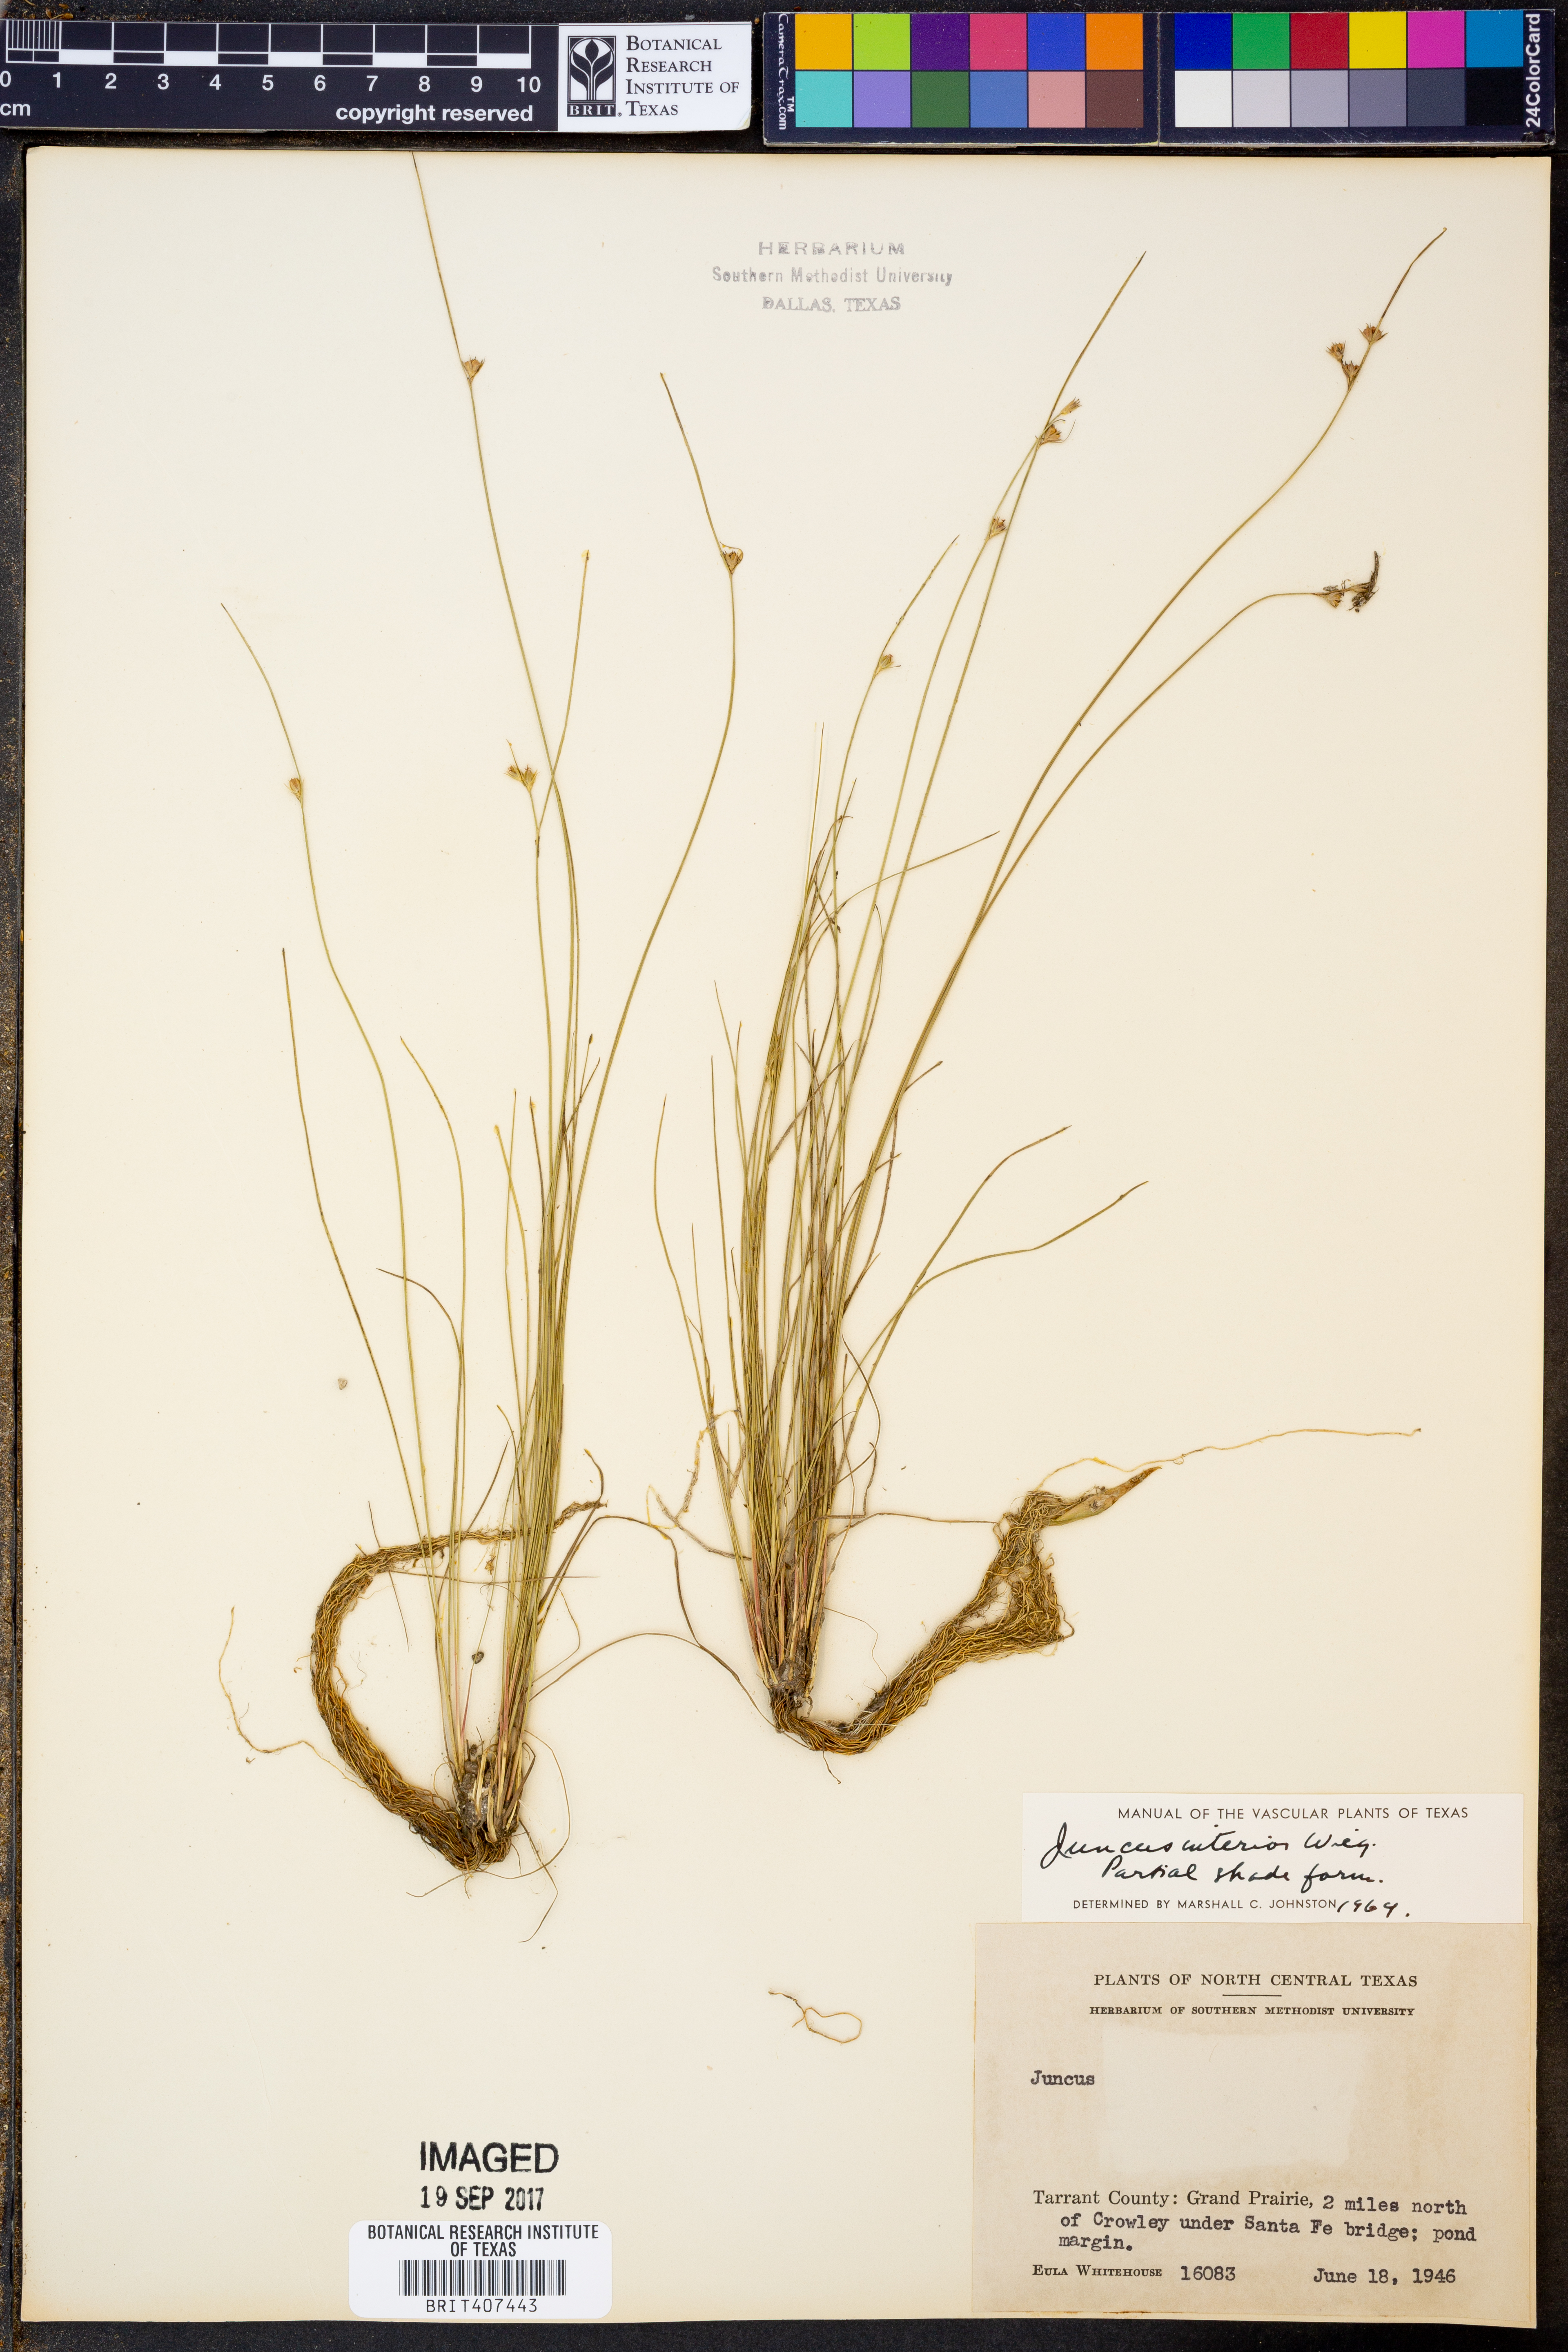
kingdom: Plantae
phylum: Tracheophyta
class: Liliopsida
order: Poales
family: Juncaceae
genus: Juncus
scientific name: Juncus interior
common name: Interior rush
